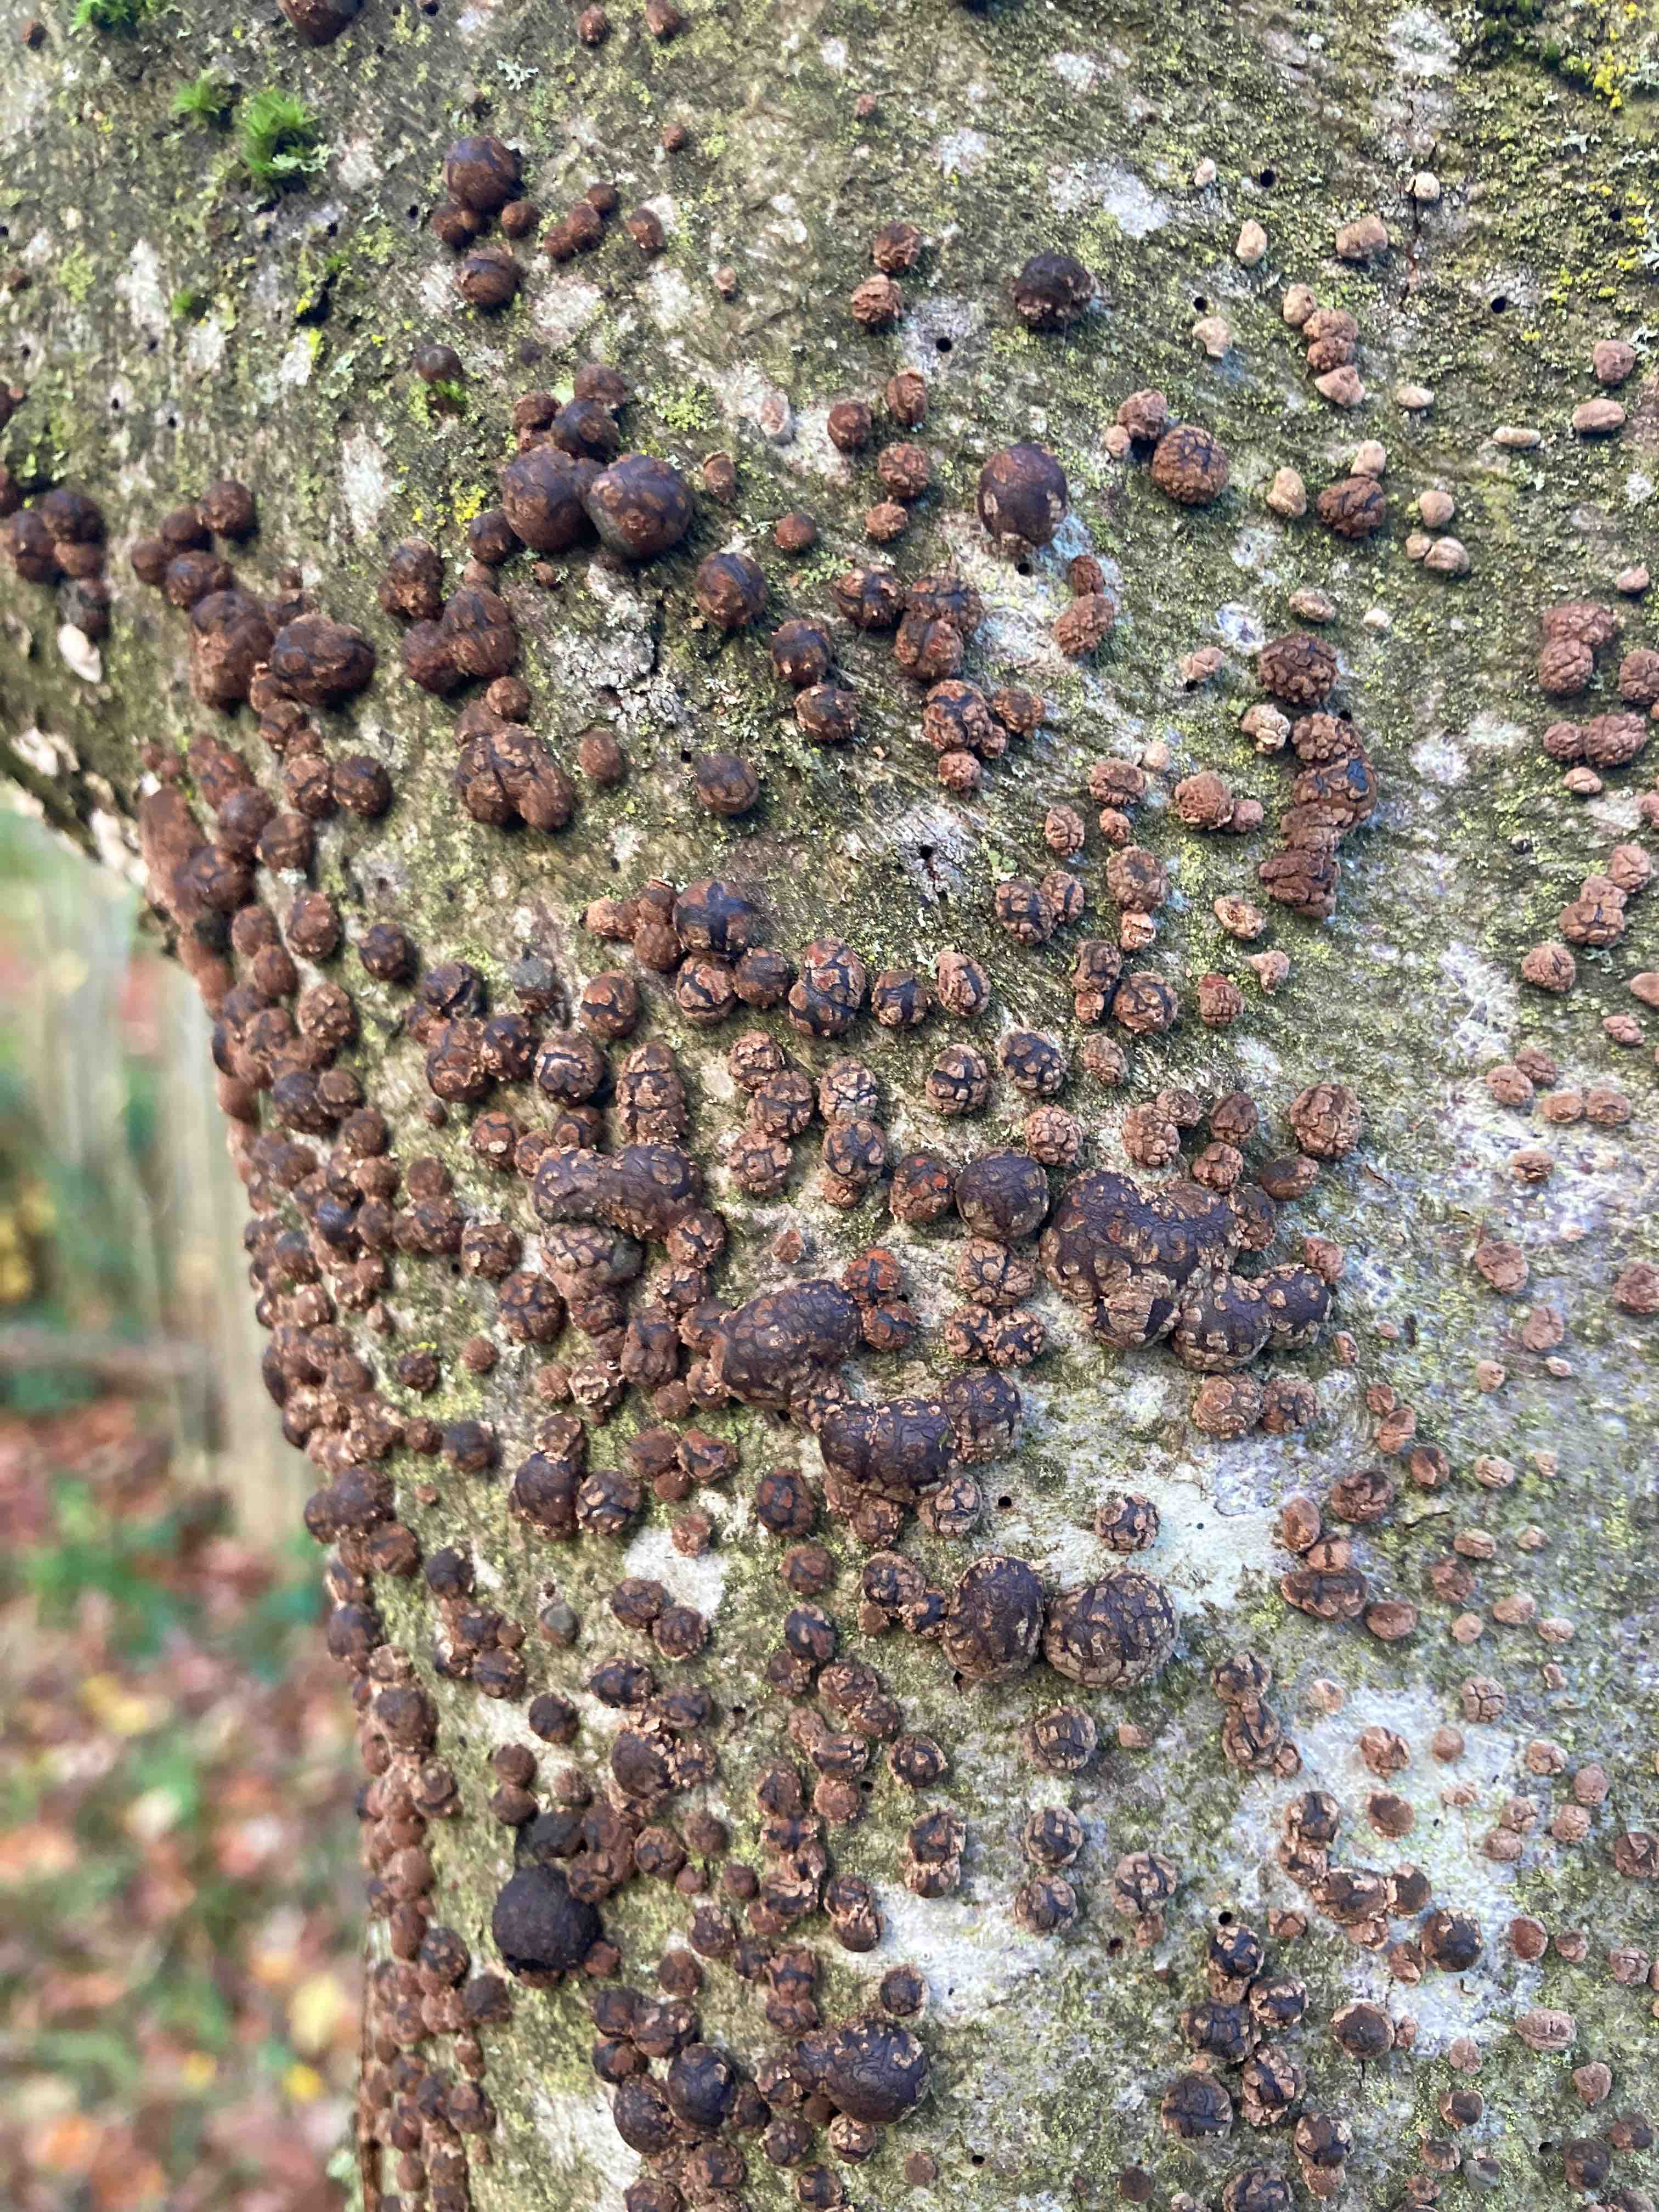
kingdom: Fungi
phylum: Ascomycota
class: Sordariomycetes
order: Xylariales
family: Hypoxylaceae
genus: Hypoxylon
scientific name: Hypoxylon fragiforme
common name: kuljordbær
